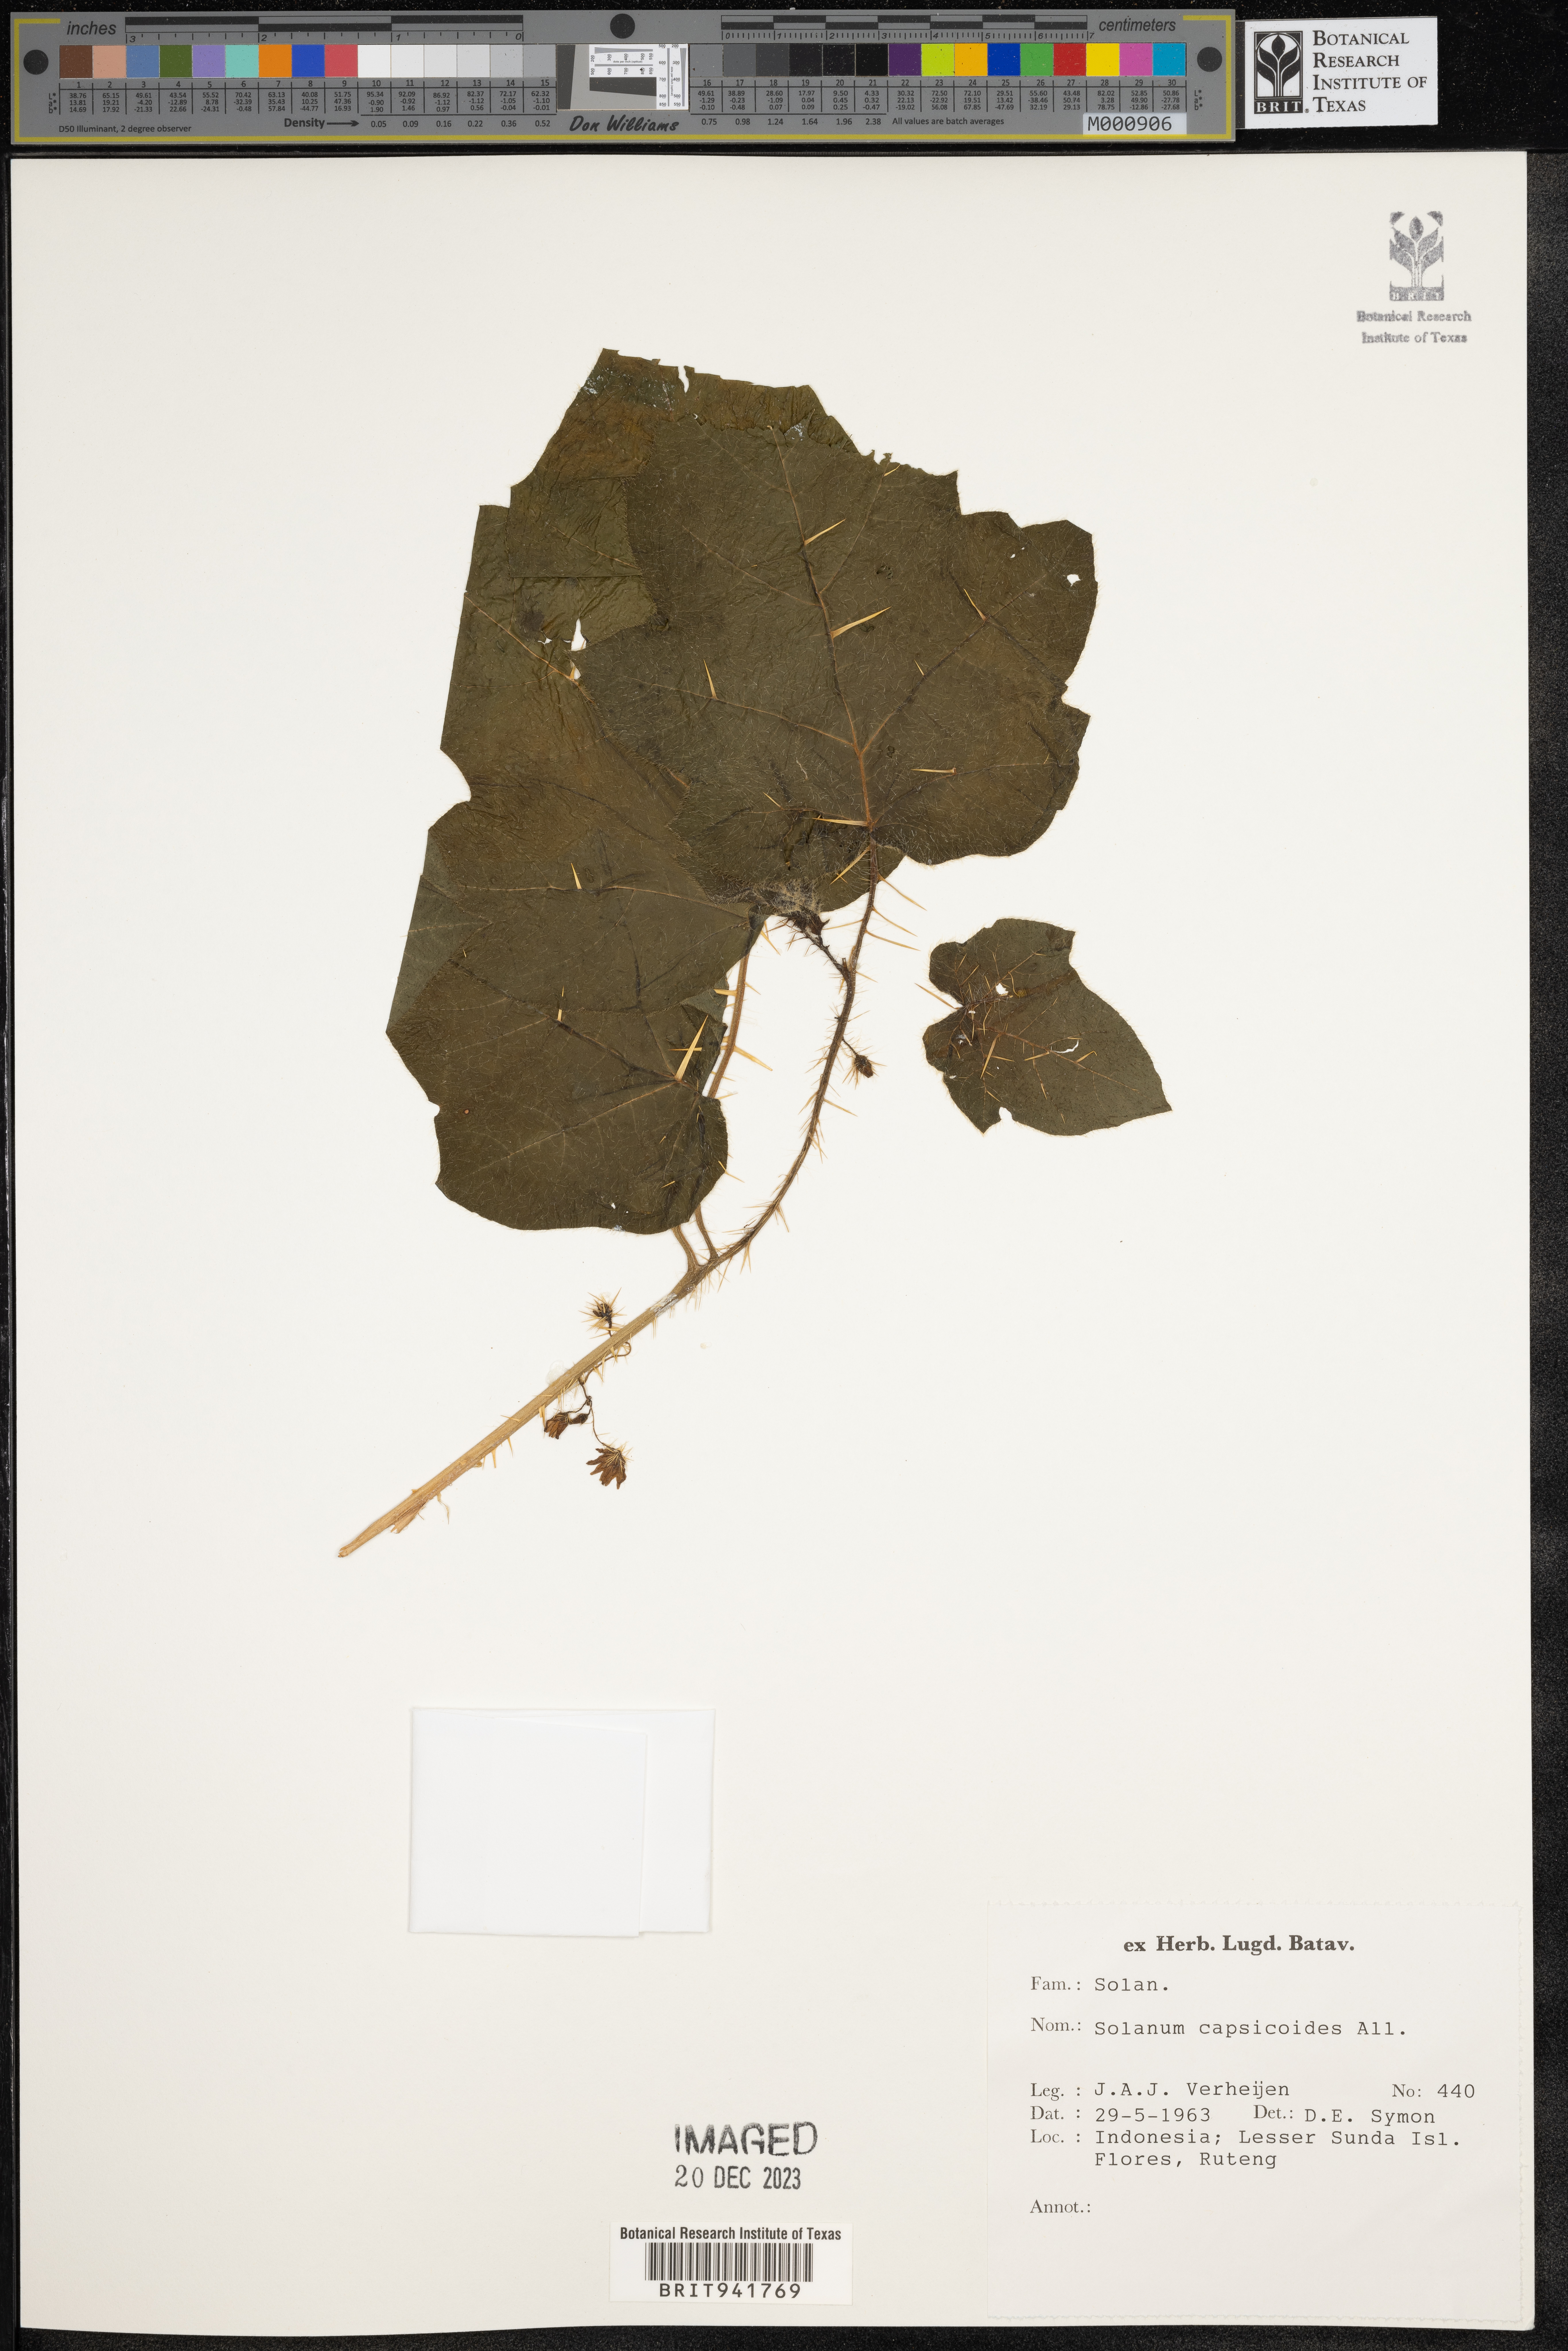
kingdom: Plantae
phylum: Tracheophyta
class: Magnoliopsida
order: Solanales
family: Solanaceae
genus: Solanum
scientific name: Solanum
